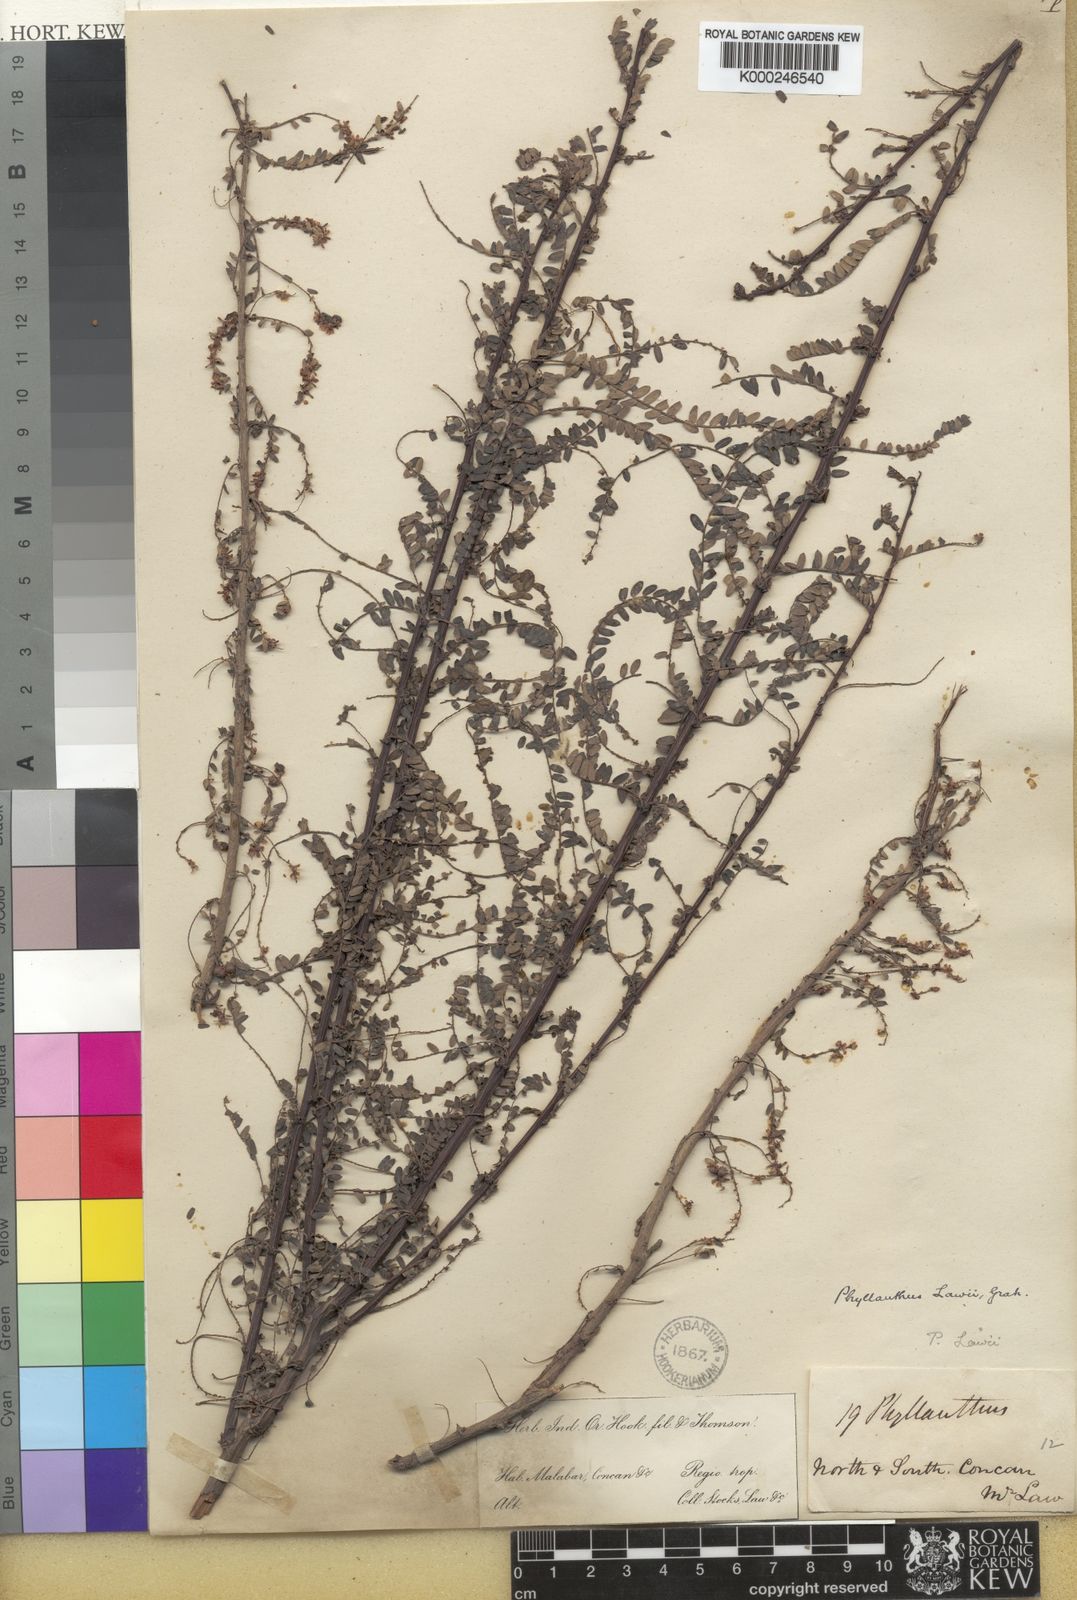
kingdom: Plantae
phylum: Tracheophyta
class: Magnoliopsida
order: Malpighiales
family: Phyllanthaceae
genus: Phyllanthus
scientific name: Phyllanthus lawii
